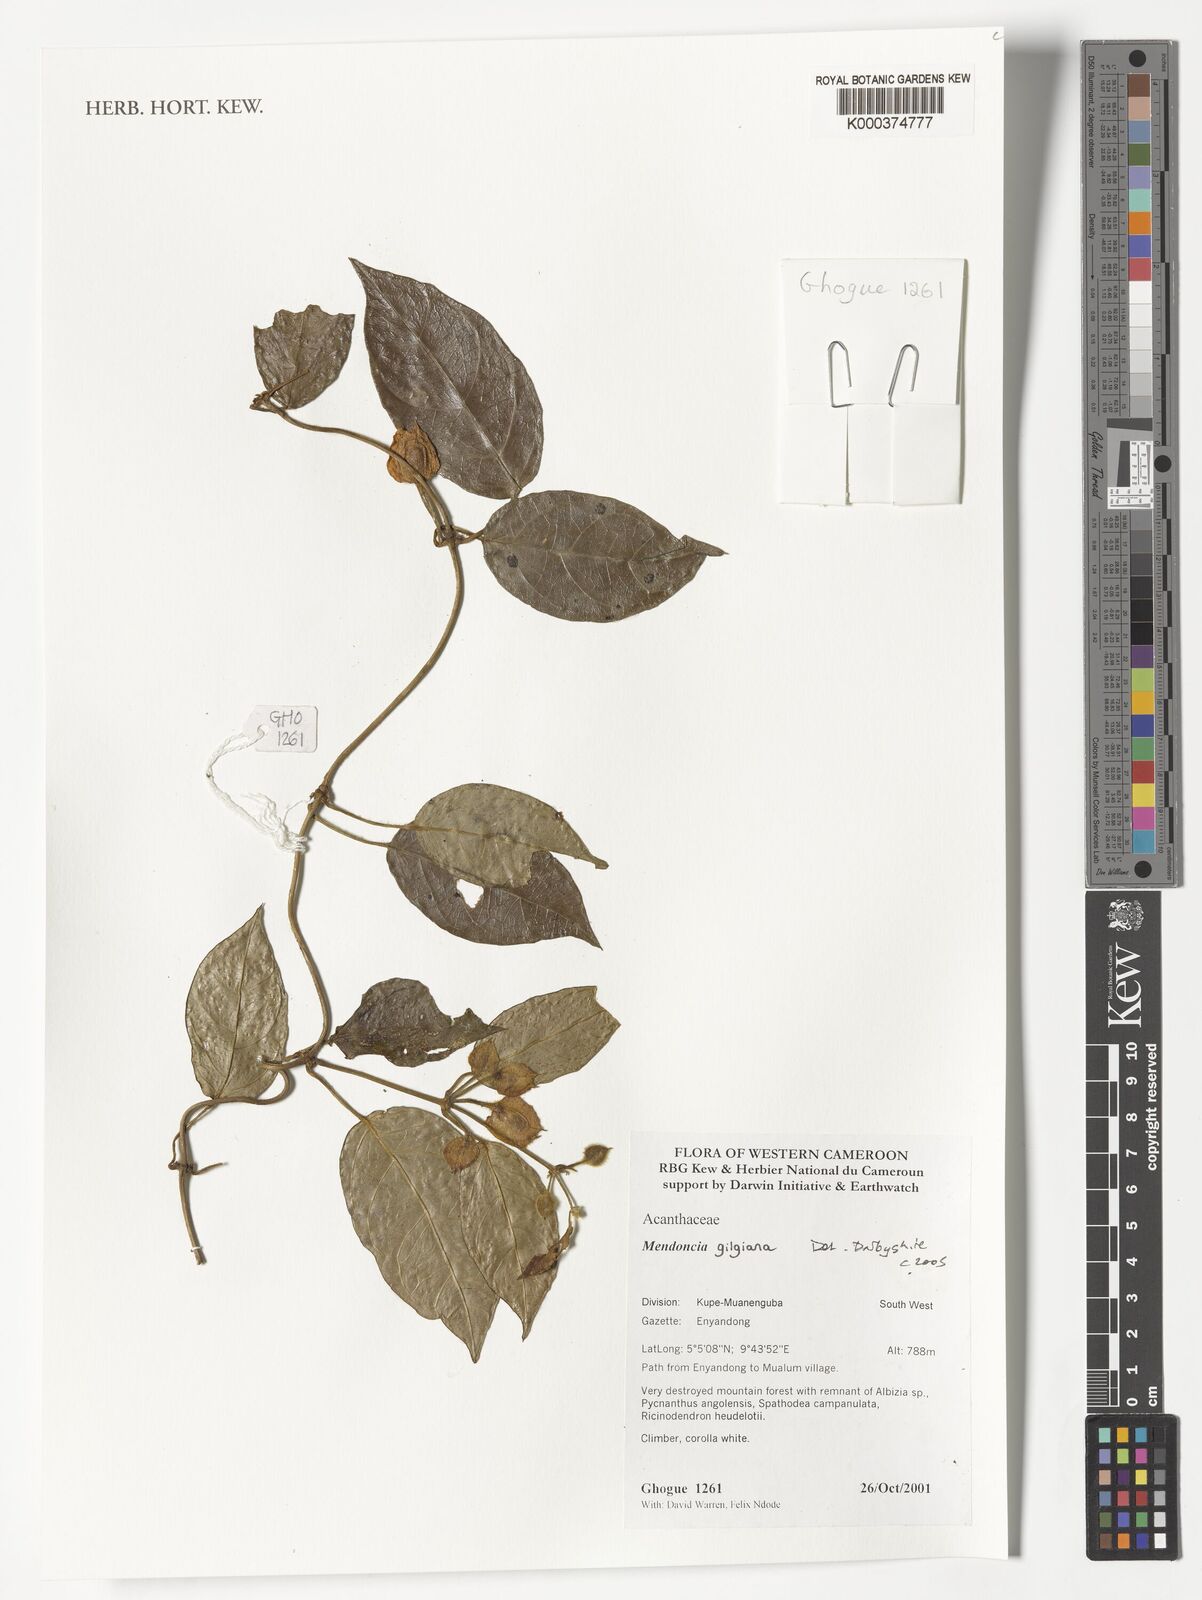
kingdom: Plantae
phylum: Tracheophyta
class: Magnoliopsida
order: Lamiales
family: Acanthaceae
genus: Mendoncia
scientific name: Mendoncia gilgiana
